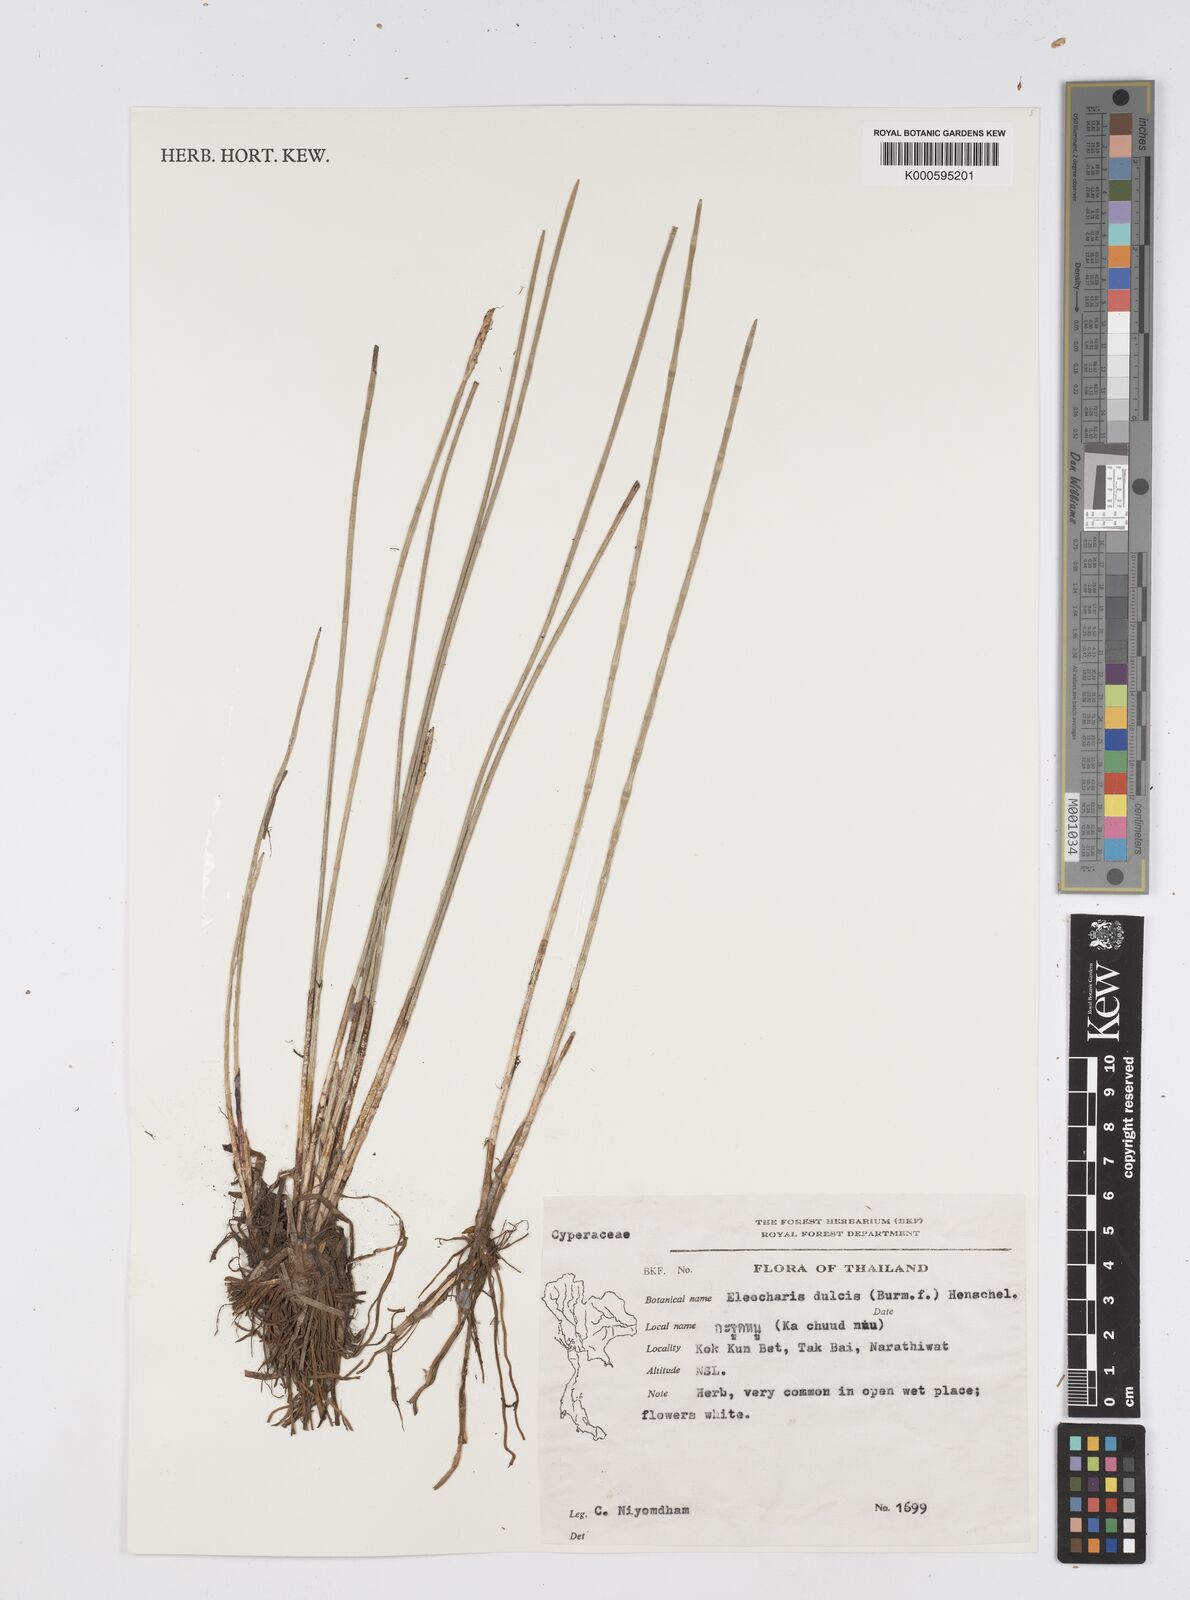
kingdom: Plantae
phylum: Tracheophyta
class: Liliopsida
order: Poales
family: Cyperaceae
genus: Eleocharis
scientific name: Eleocharis dulcis
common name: Chinese water chestnut
